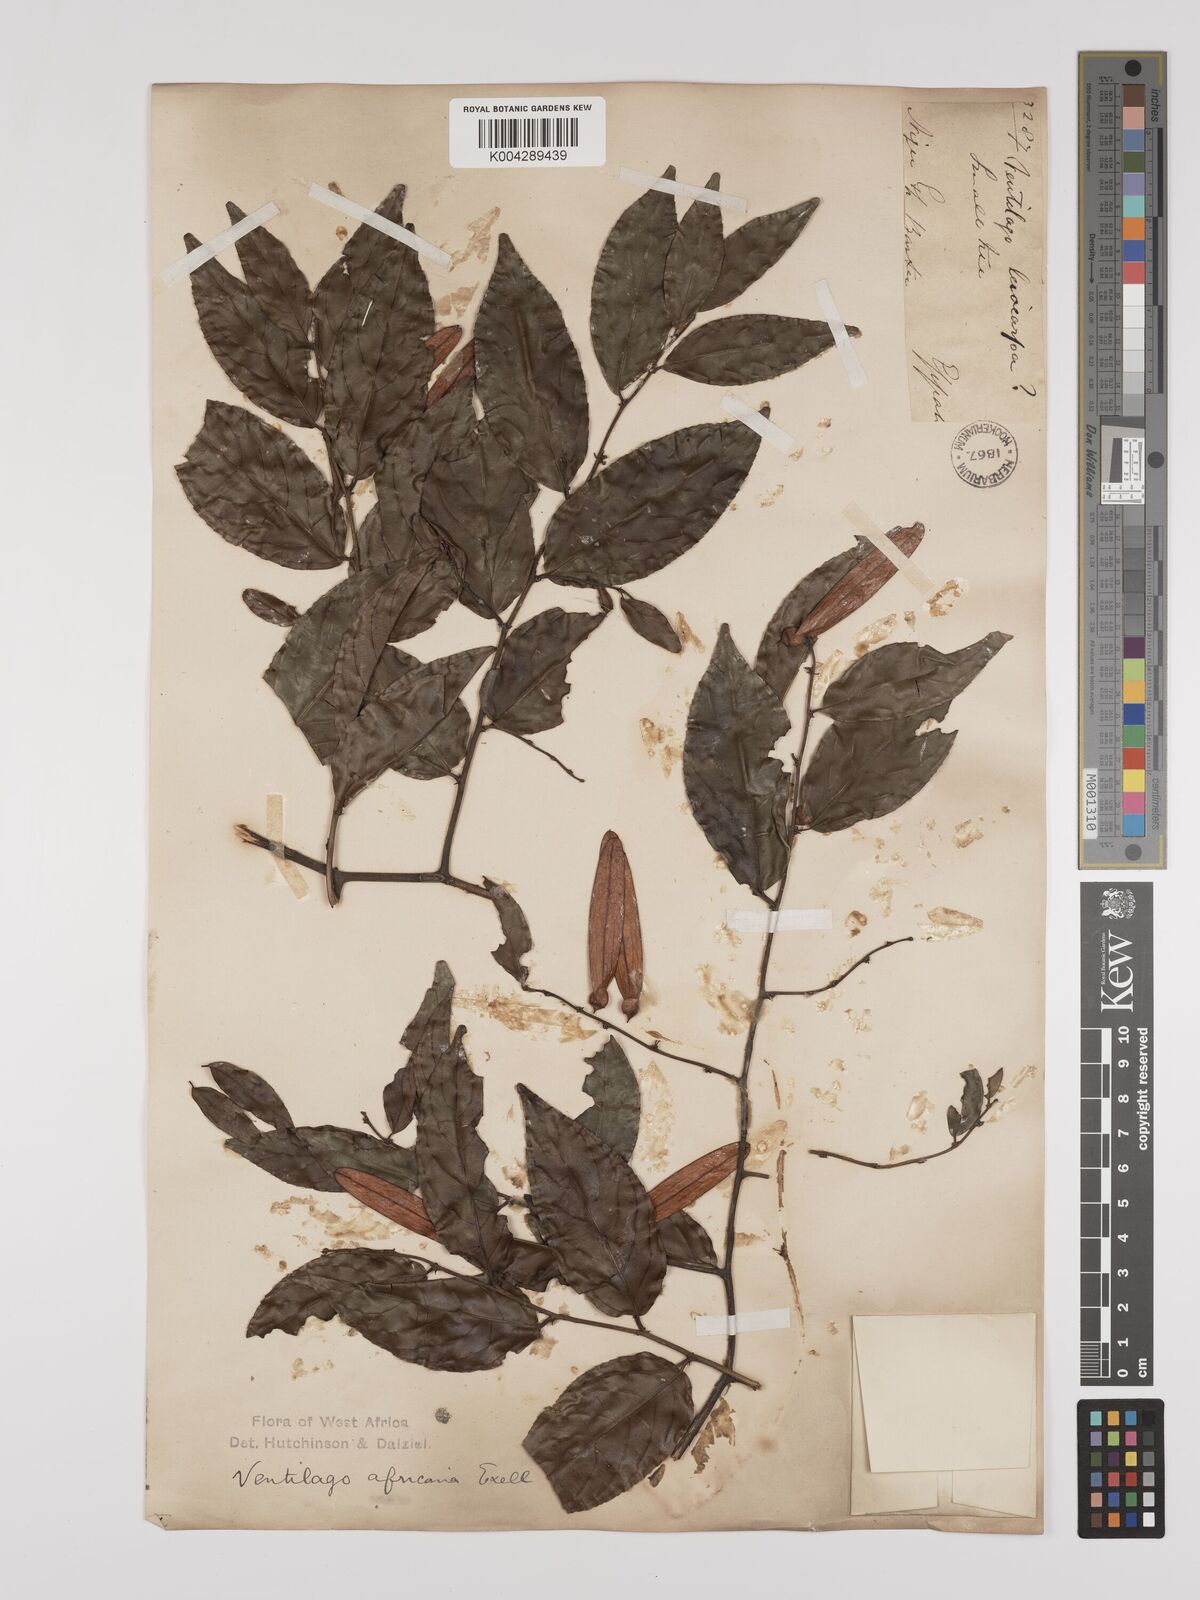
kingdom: Plantae
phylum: Tracheophyta
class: Magnoliopsida
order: Rosales
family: Rhamnaceae
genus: Ventilago
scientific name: Ventilago africana
